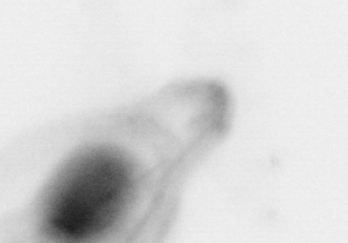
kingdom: Animalia
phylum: Chaetognatha
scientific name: Chaetognatha
